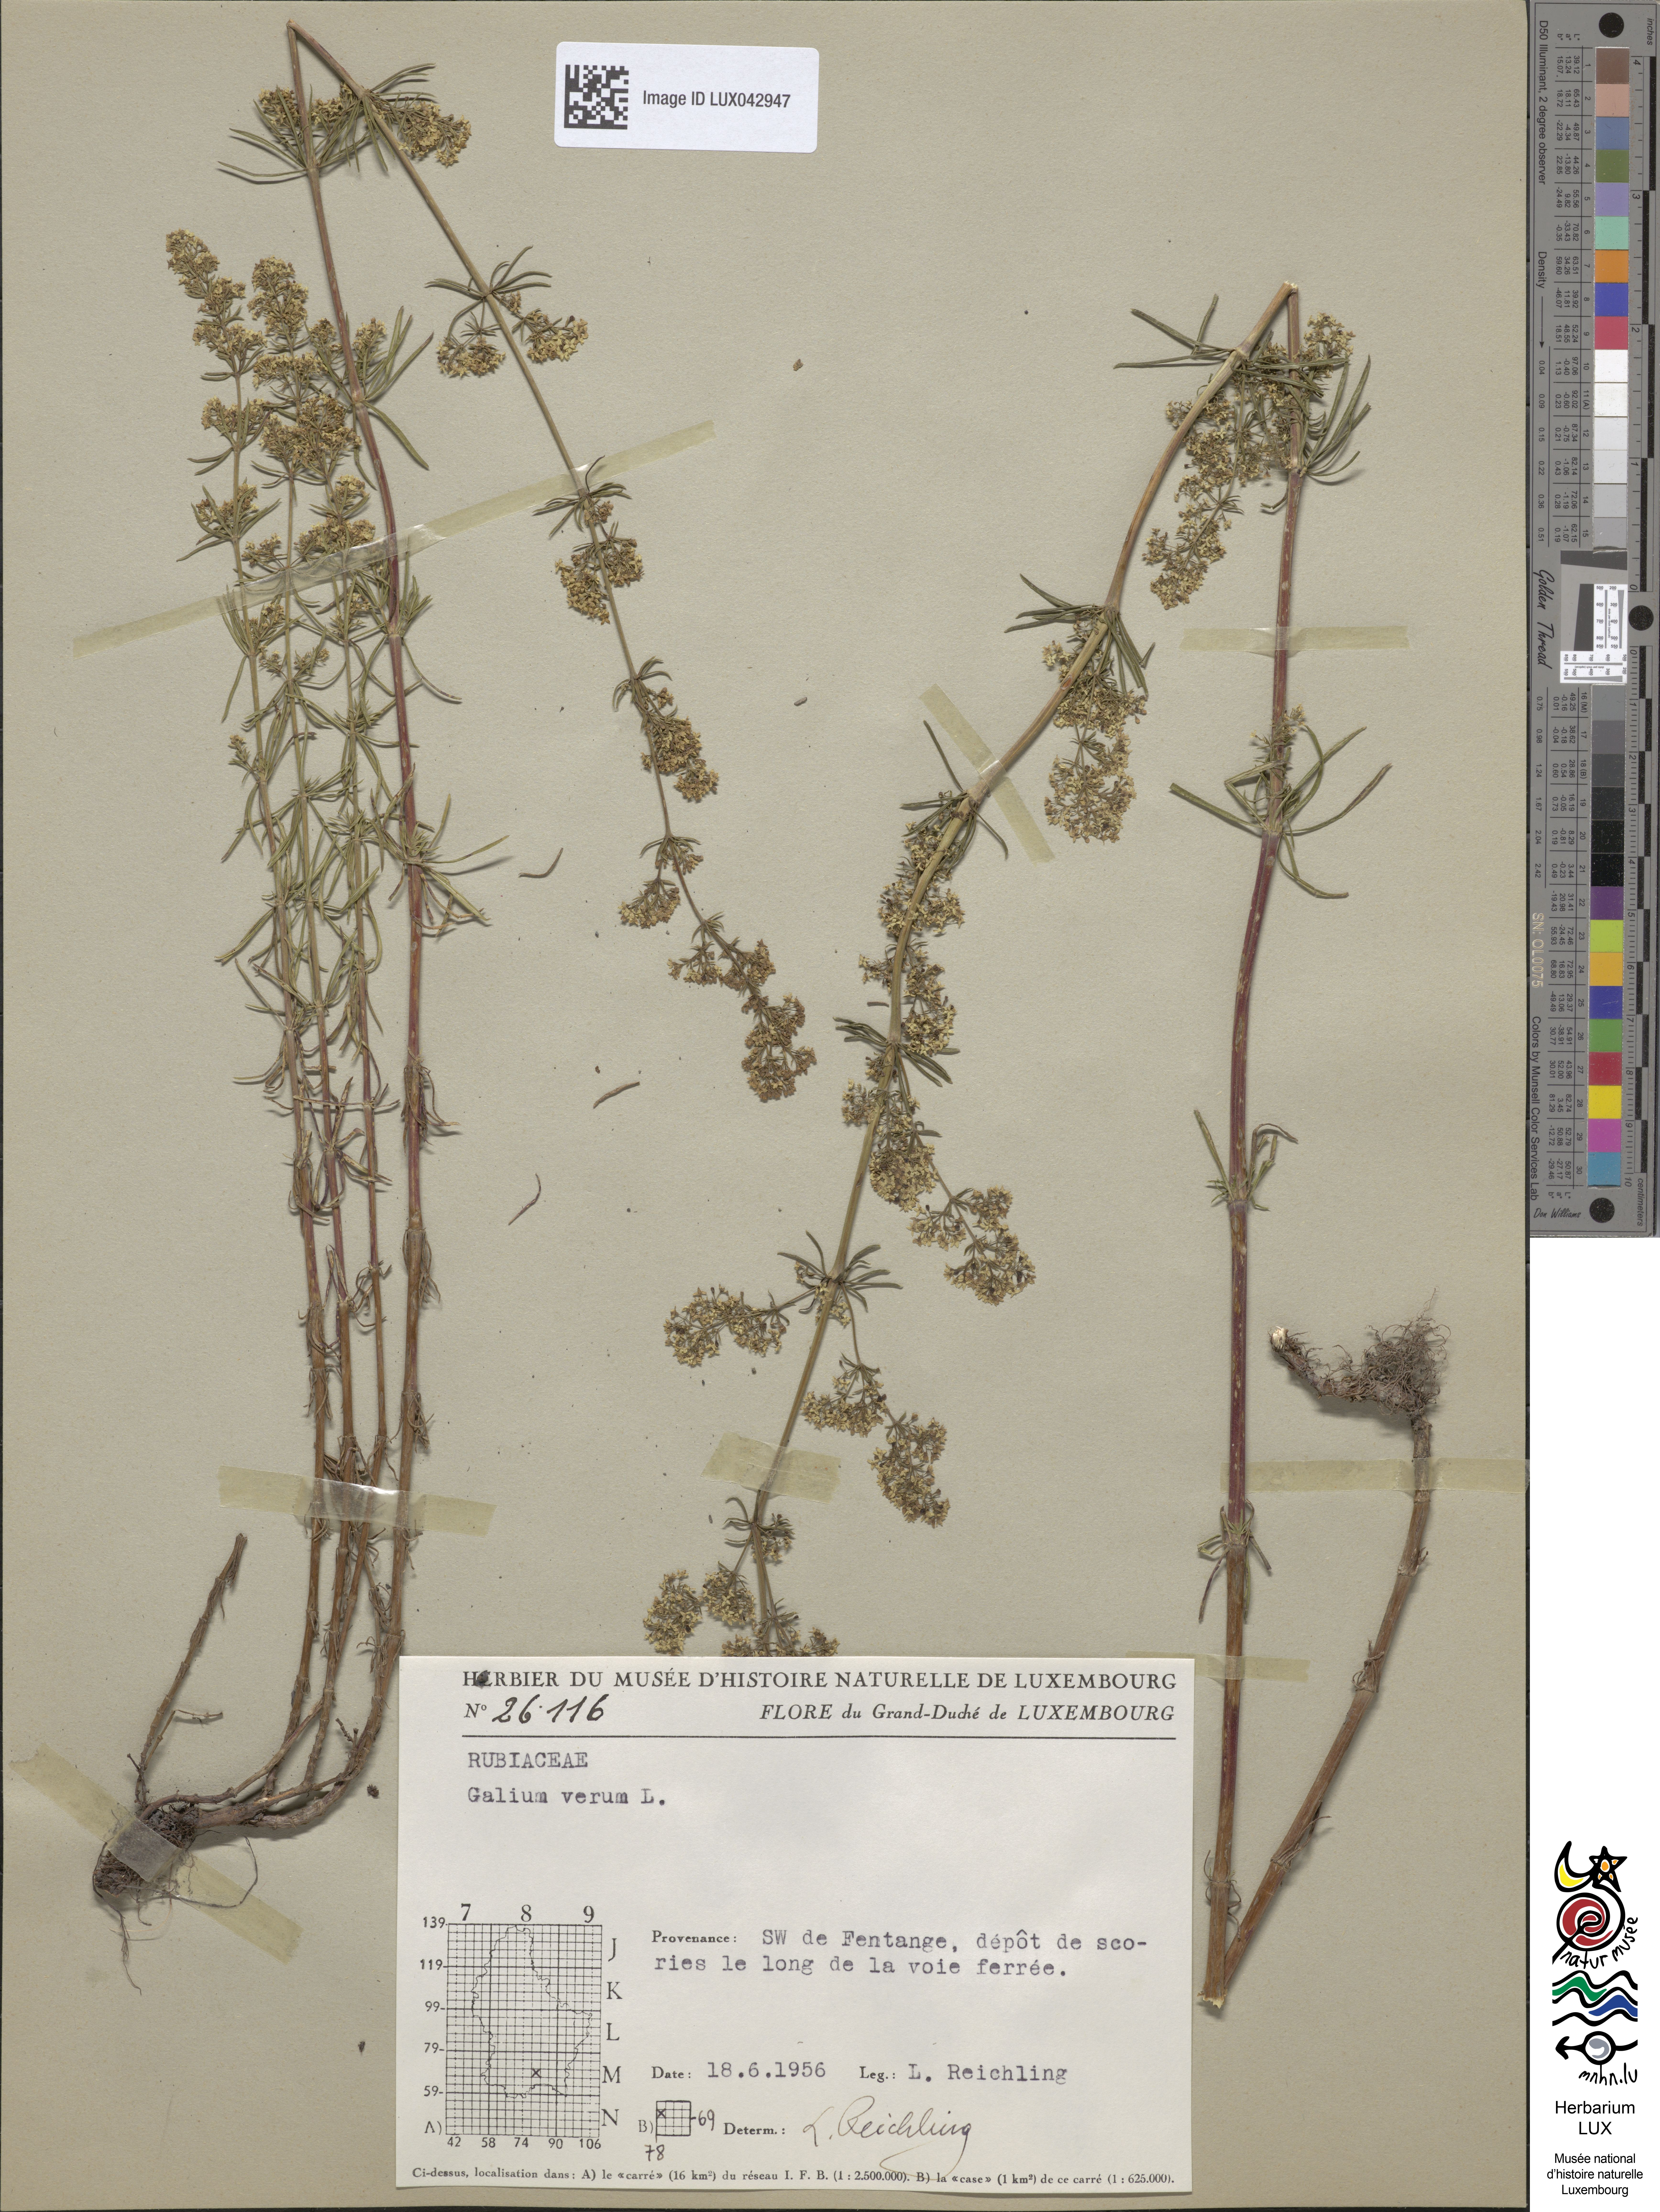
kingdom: Plantae
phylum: Tracheophyta
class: Magnoliopsida
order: Gentianales
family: Rubiaceae
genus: Galium
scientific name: Galium verum
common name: Lady's bedstraw
